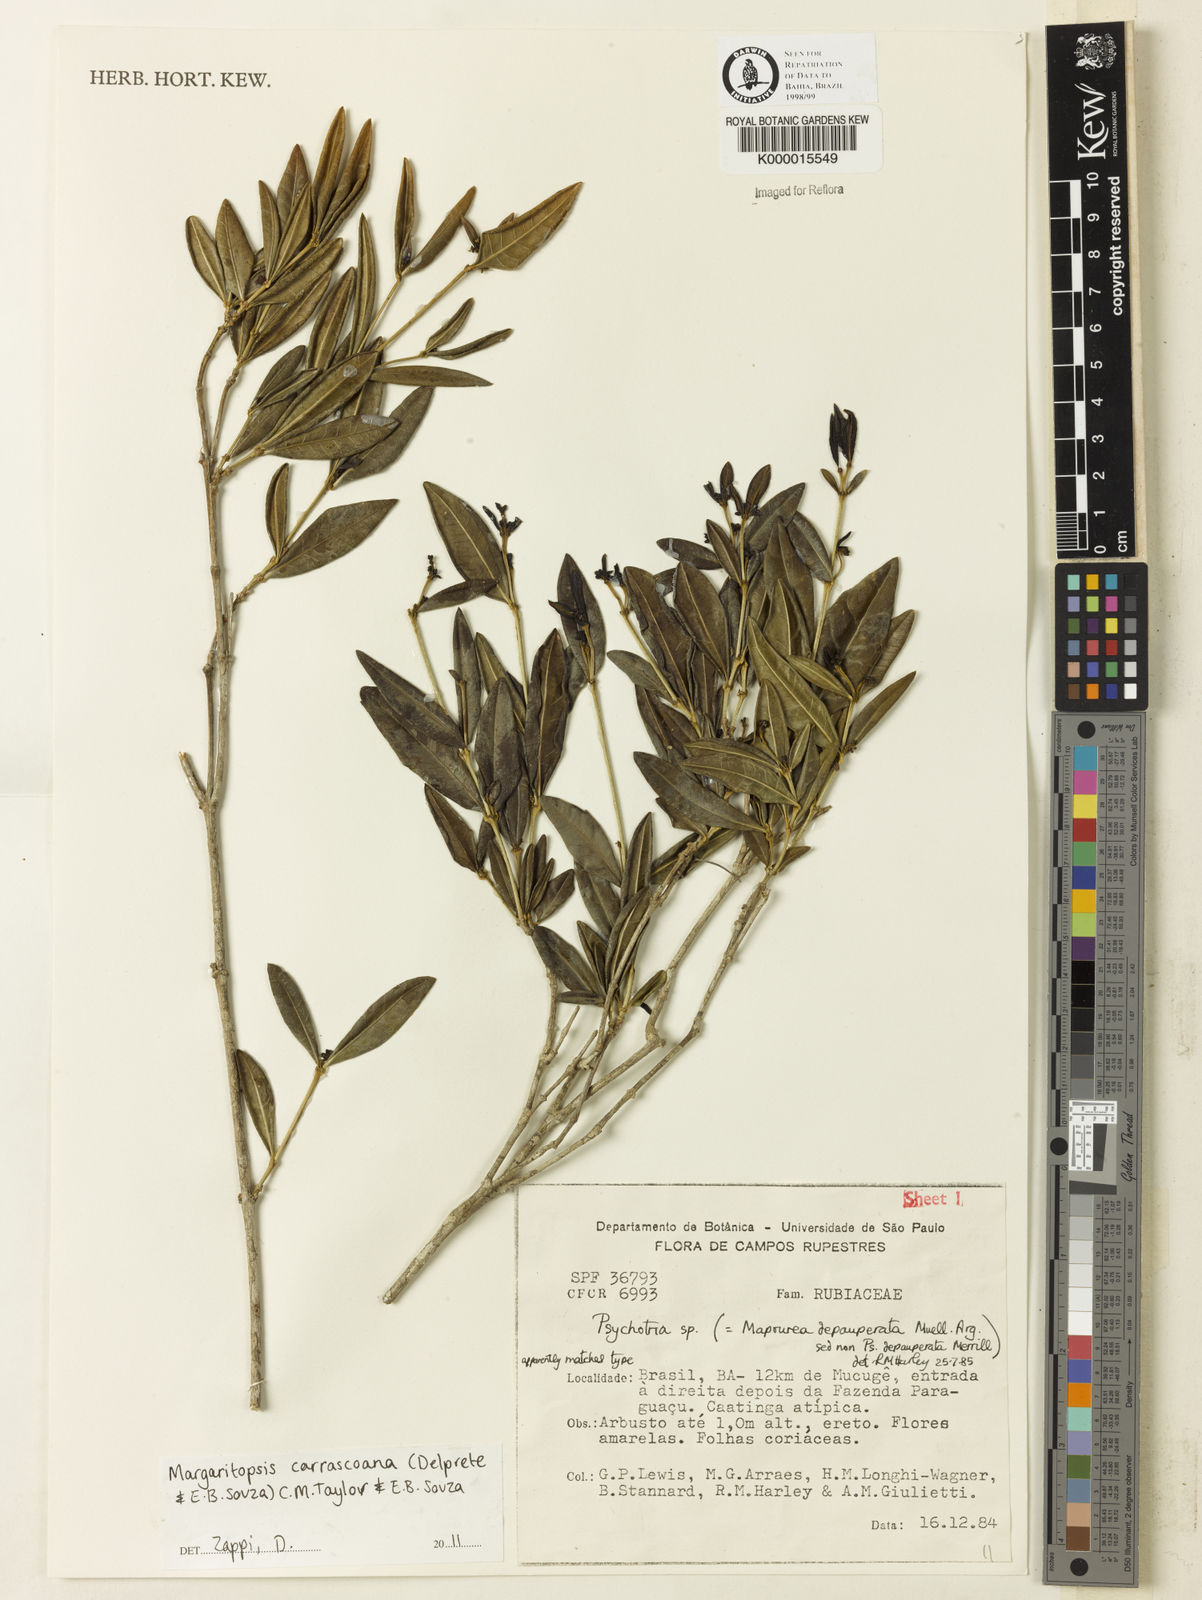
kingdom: Plantae
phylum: Tracheophyta
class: Magnoliopsida
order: Gentianales
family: Rubiaceae
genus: Eumachia
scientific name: Eumachia depauperata
